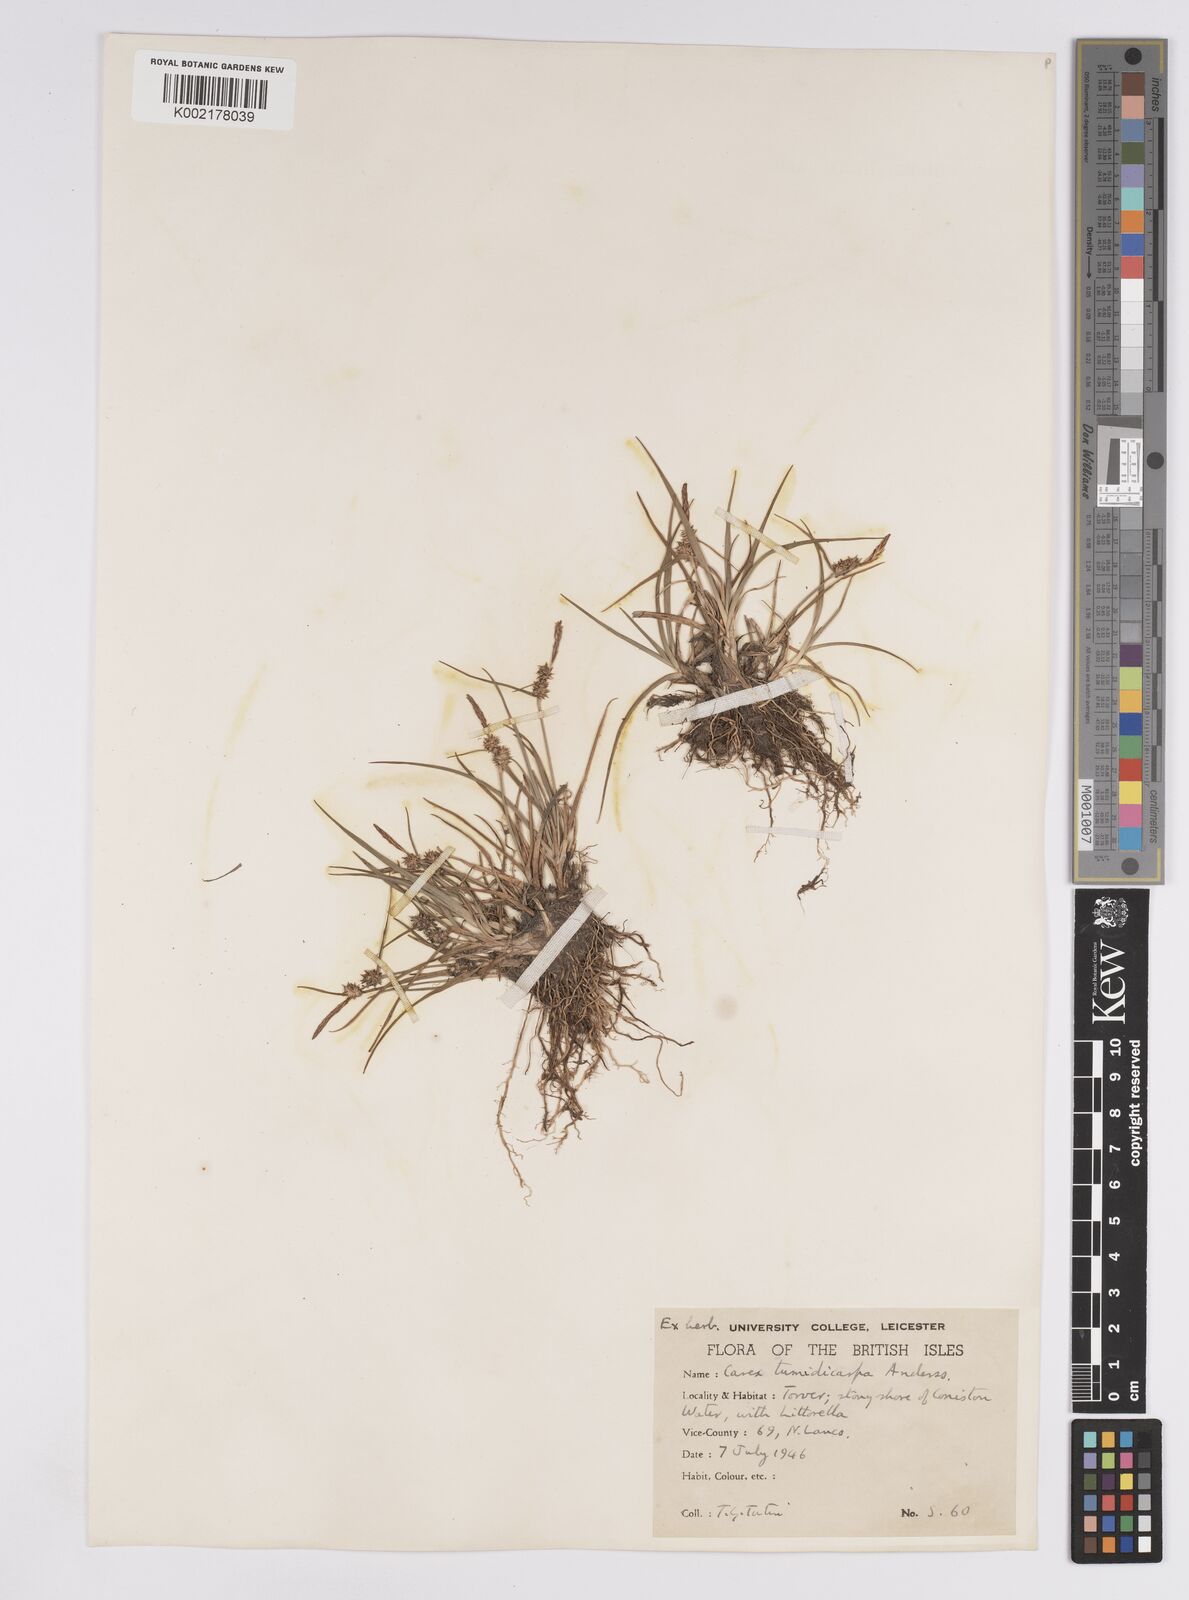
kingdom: Plantae
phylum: Tracheophyta
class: Liliopsida
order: Poales
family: Cyperaceae
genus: Carex
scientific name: Carex demissa
